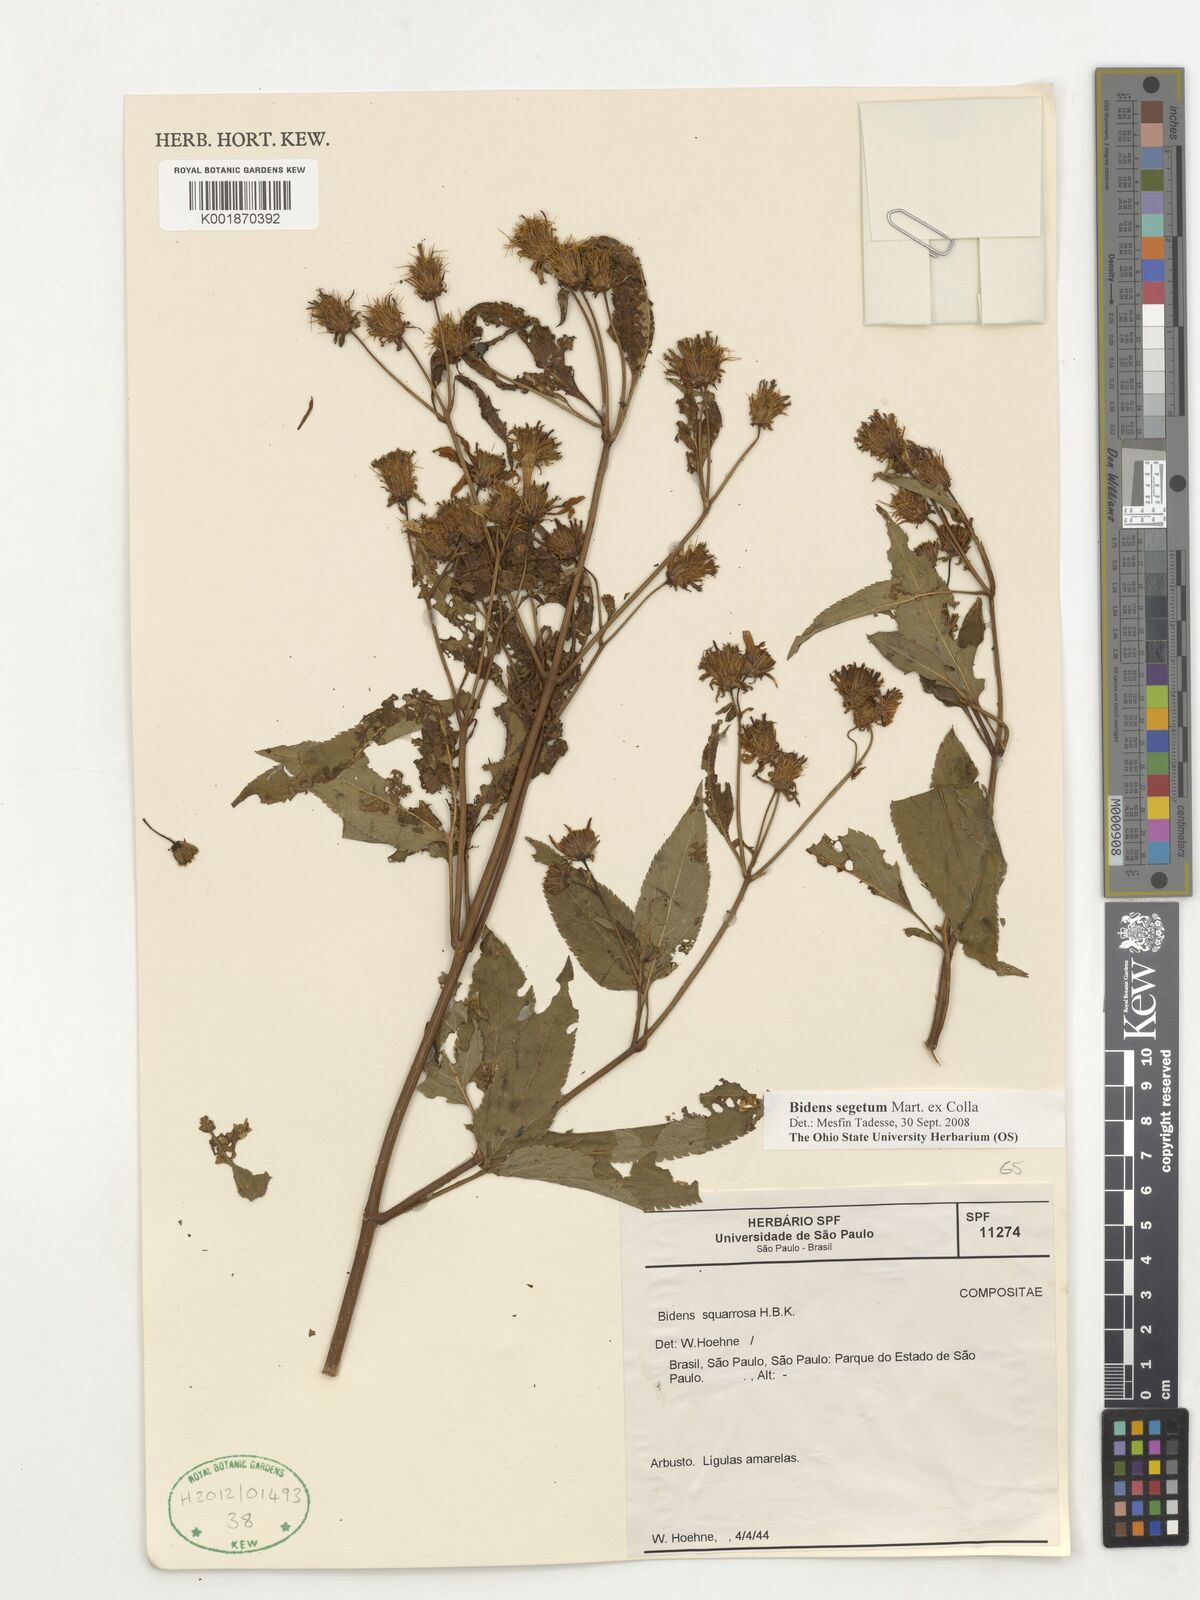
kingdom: Plantae
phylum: Tracheophyta
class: Magnoliopsida
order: Asterales
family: Asteraceae
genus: Bidens
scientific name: Bidens segetum
